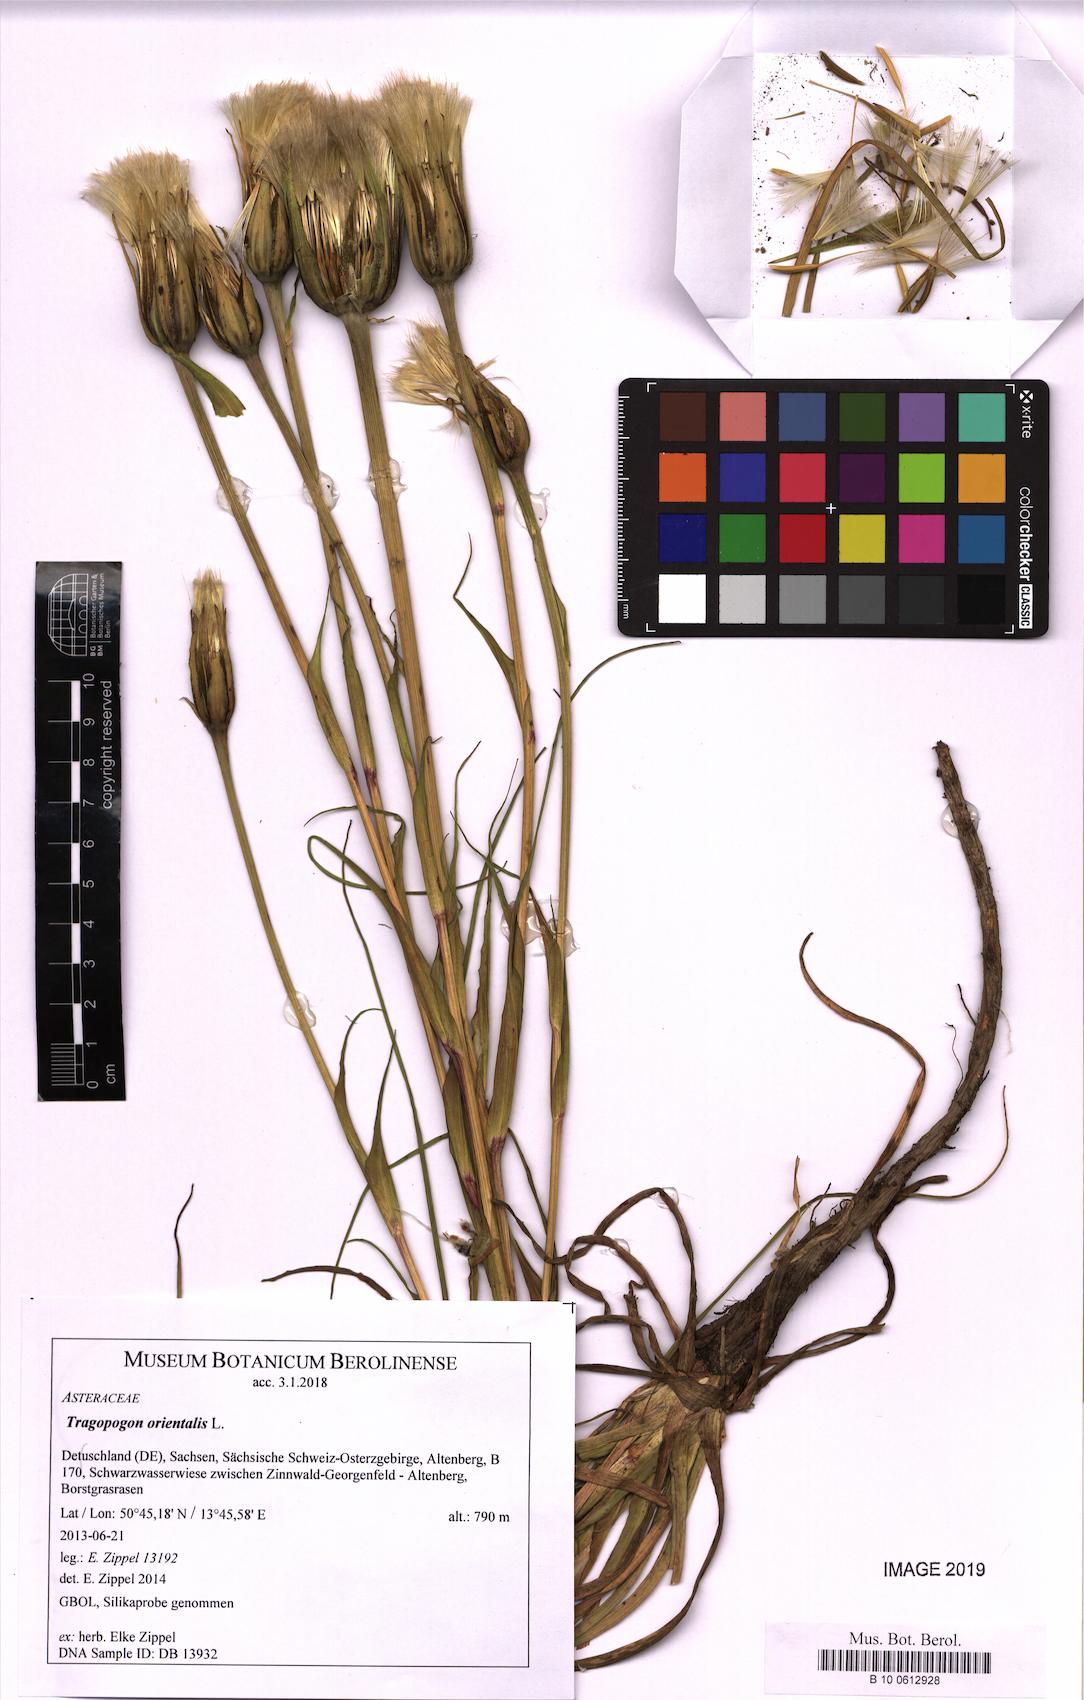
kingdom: Plantae
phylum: Tracheophyta
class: Magnoliopsida
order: Asterales
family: Asteraceae
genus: Tragopogon
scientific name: Tragopogon orientalis
